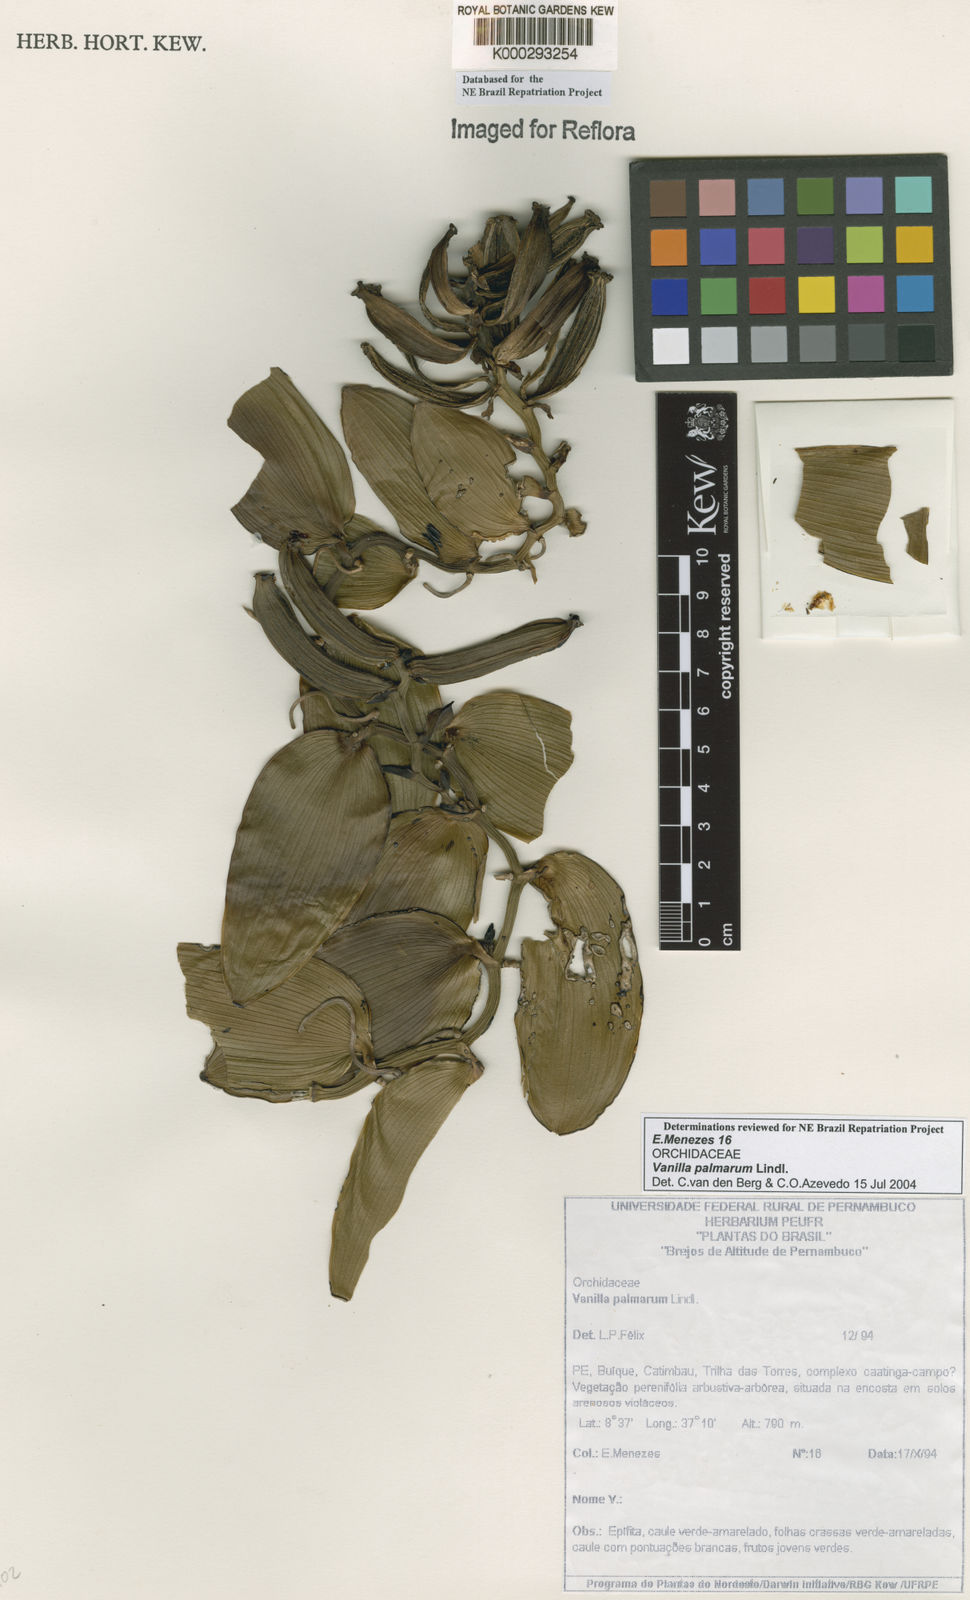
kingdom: Plantae
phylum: Tracheophyta
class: Liliopsida
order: Asparagales
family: Orchidaceae
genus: Vanilla
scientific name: Vanilla palmarum
